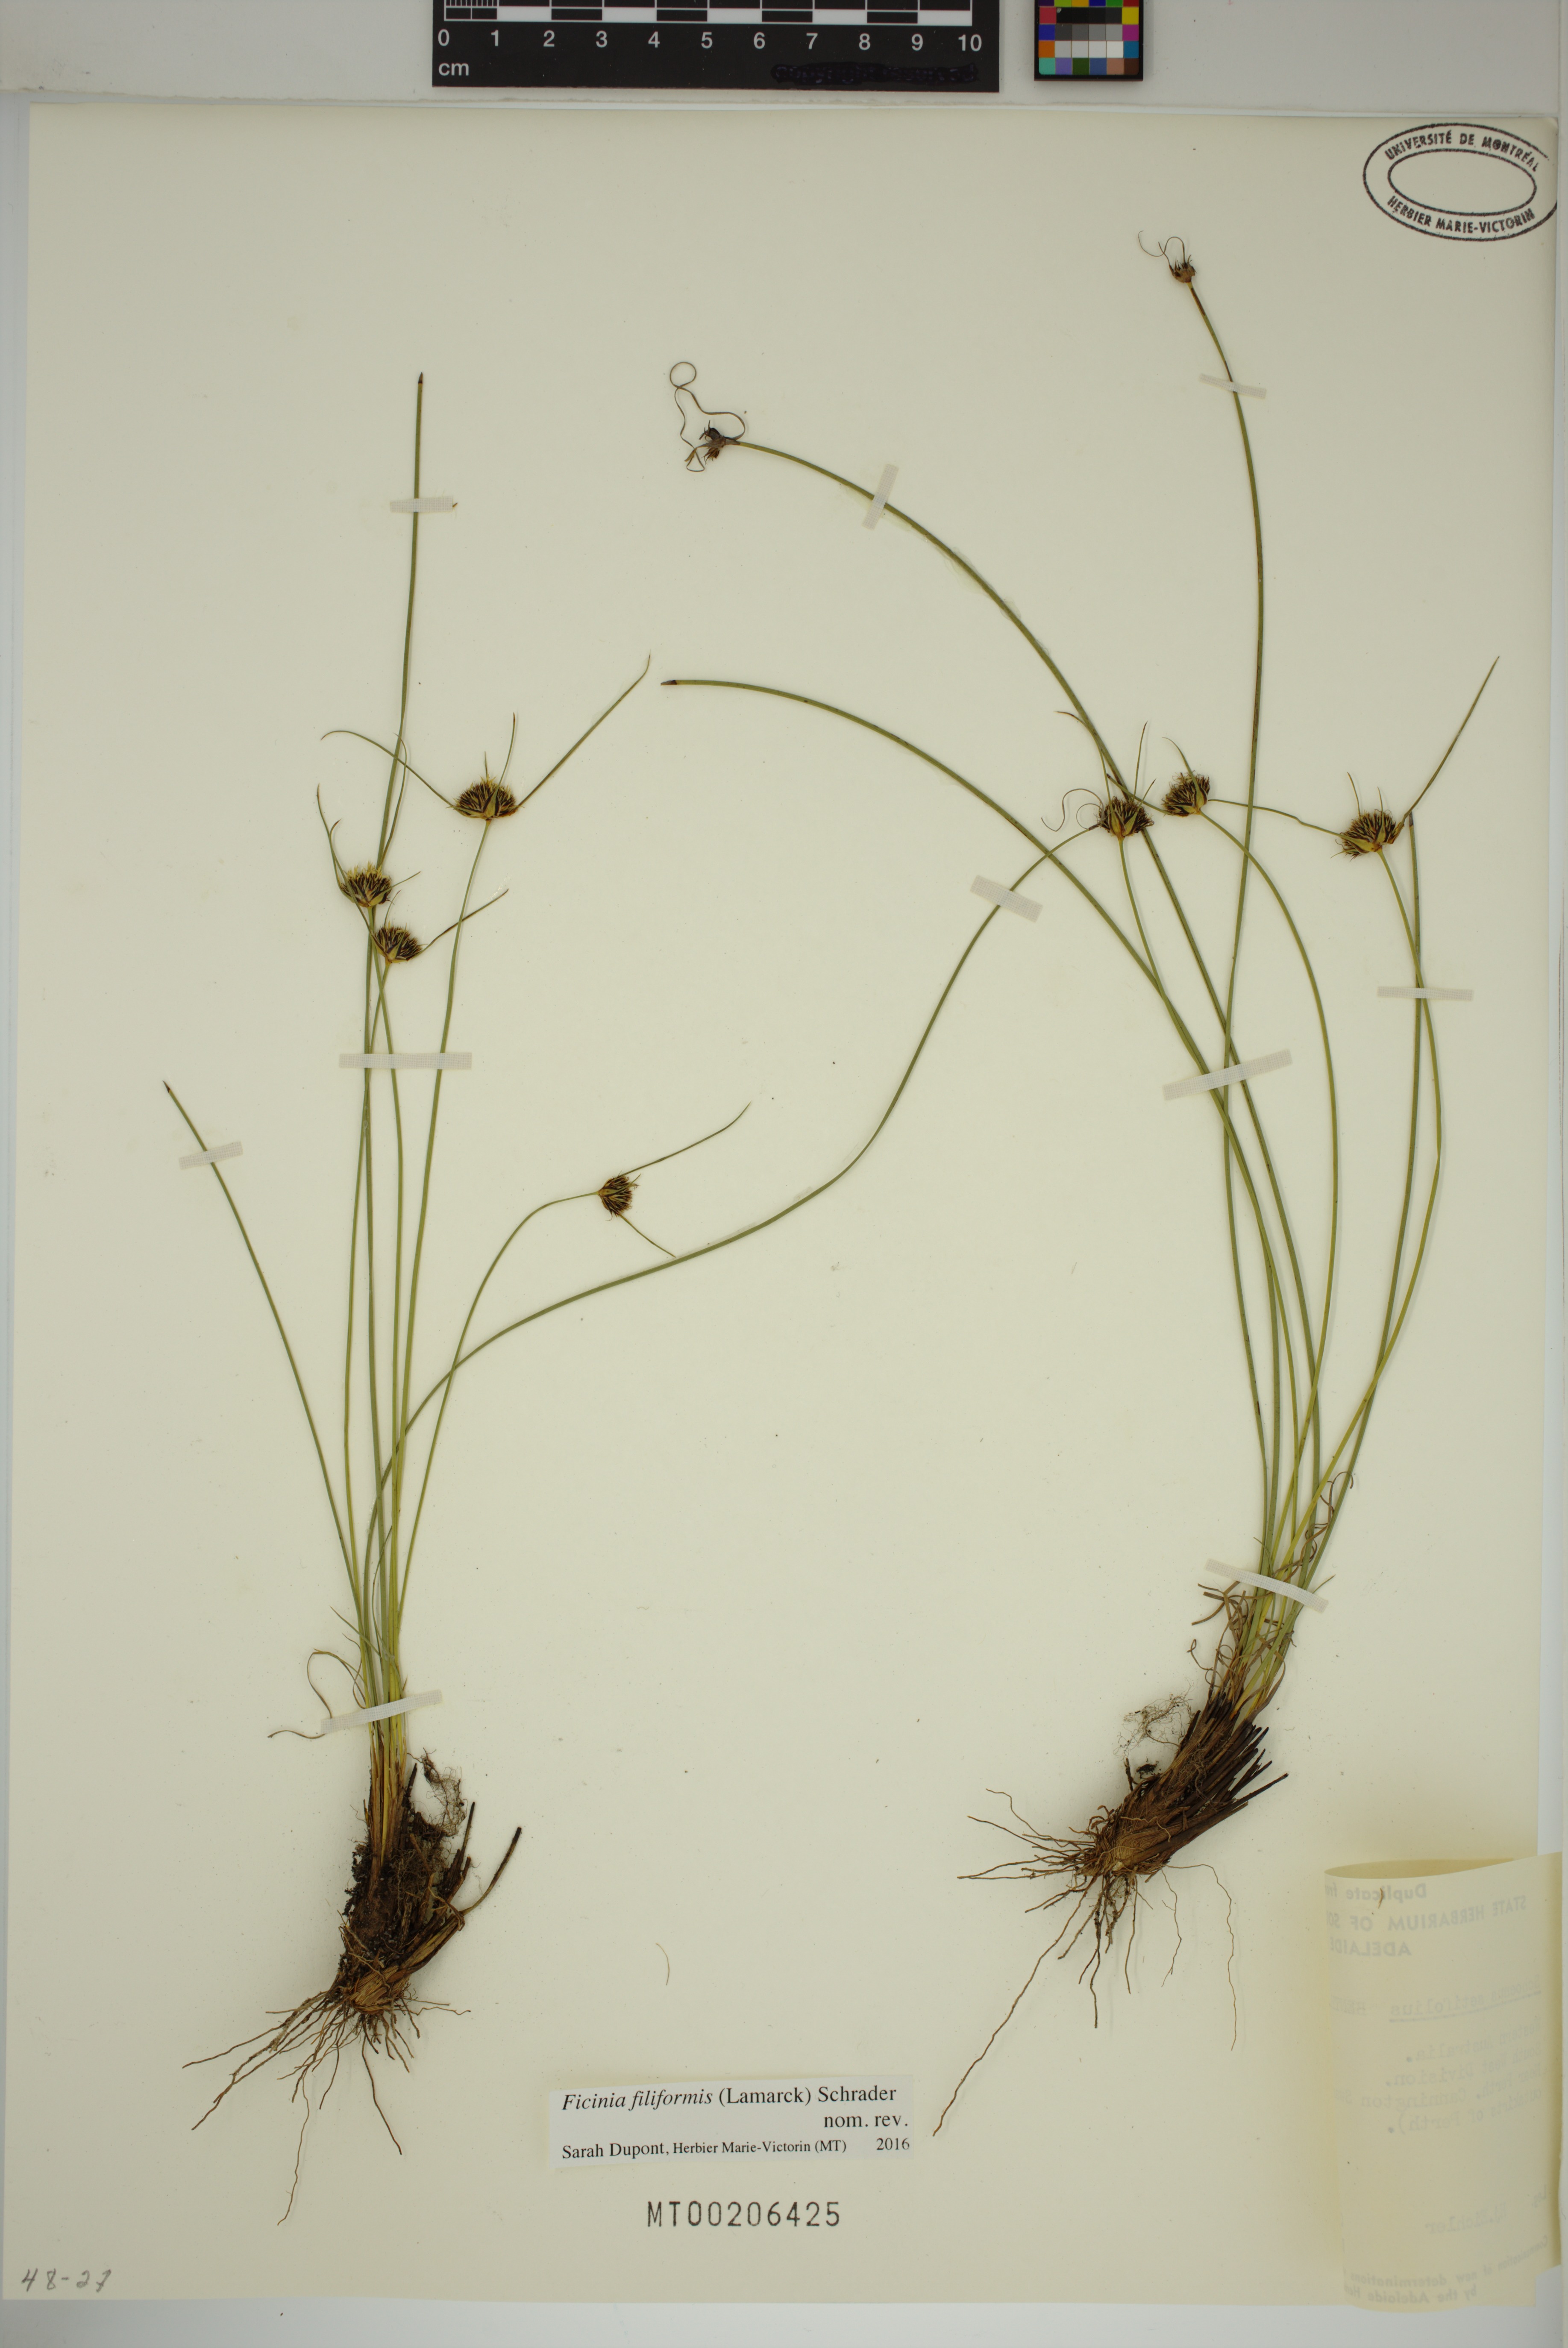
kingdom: Plantae
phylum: Tracheophyta
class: Liliopsida
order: Poales
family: Cyperaceae
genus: Ficinia
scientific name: Ficinia filiformis
